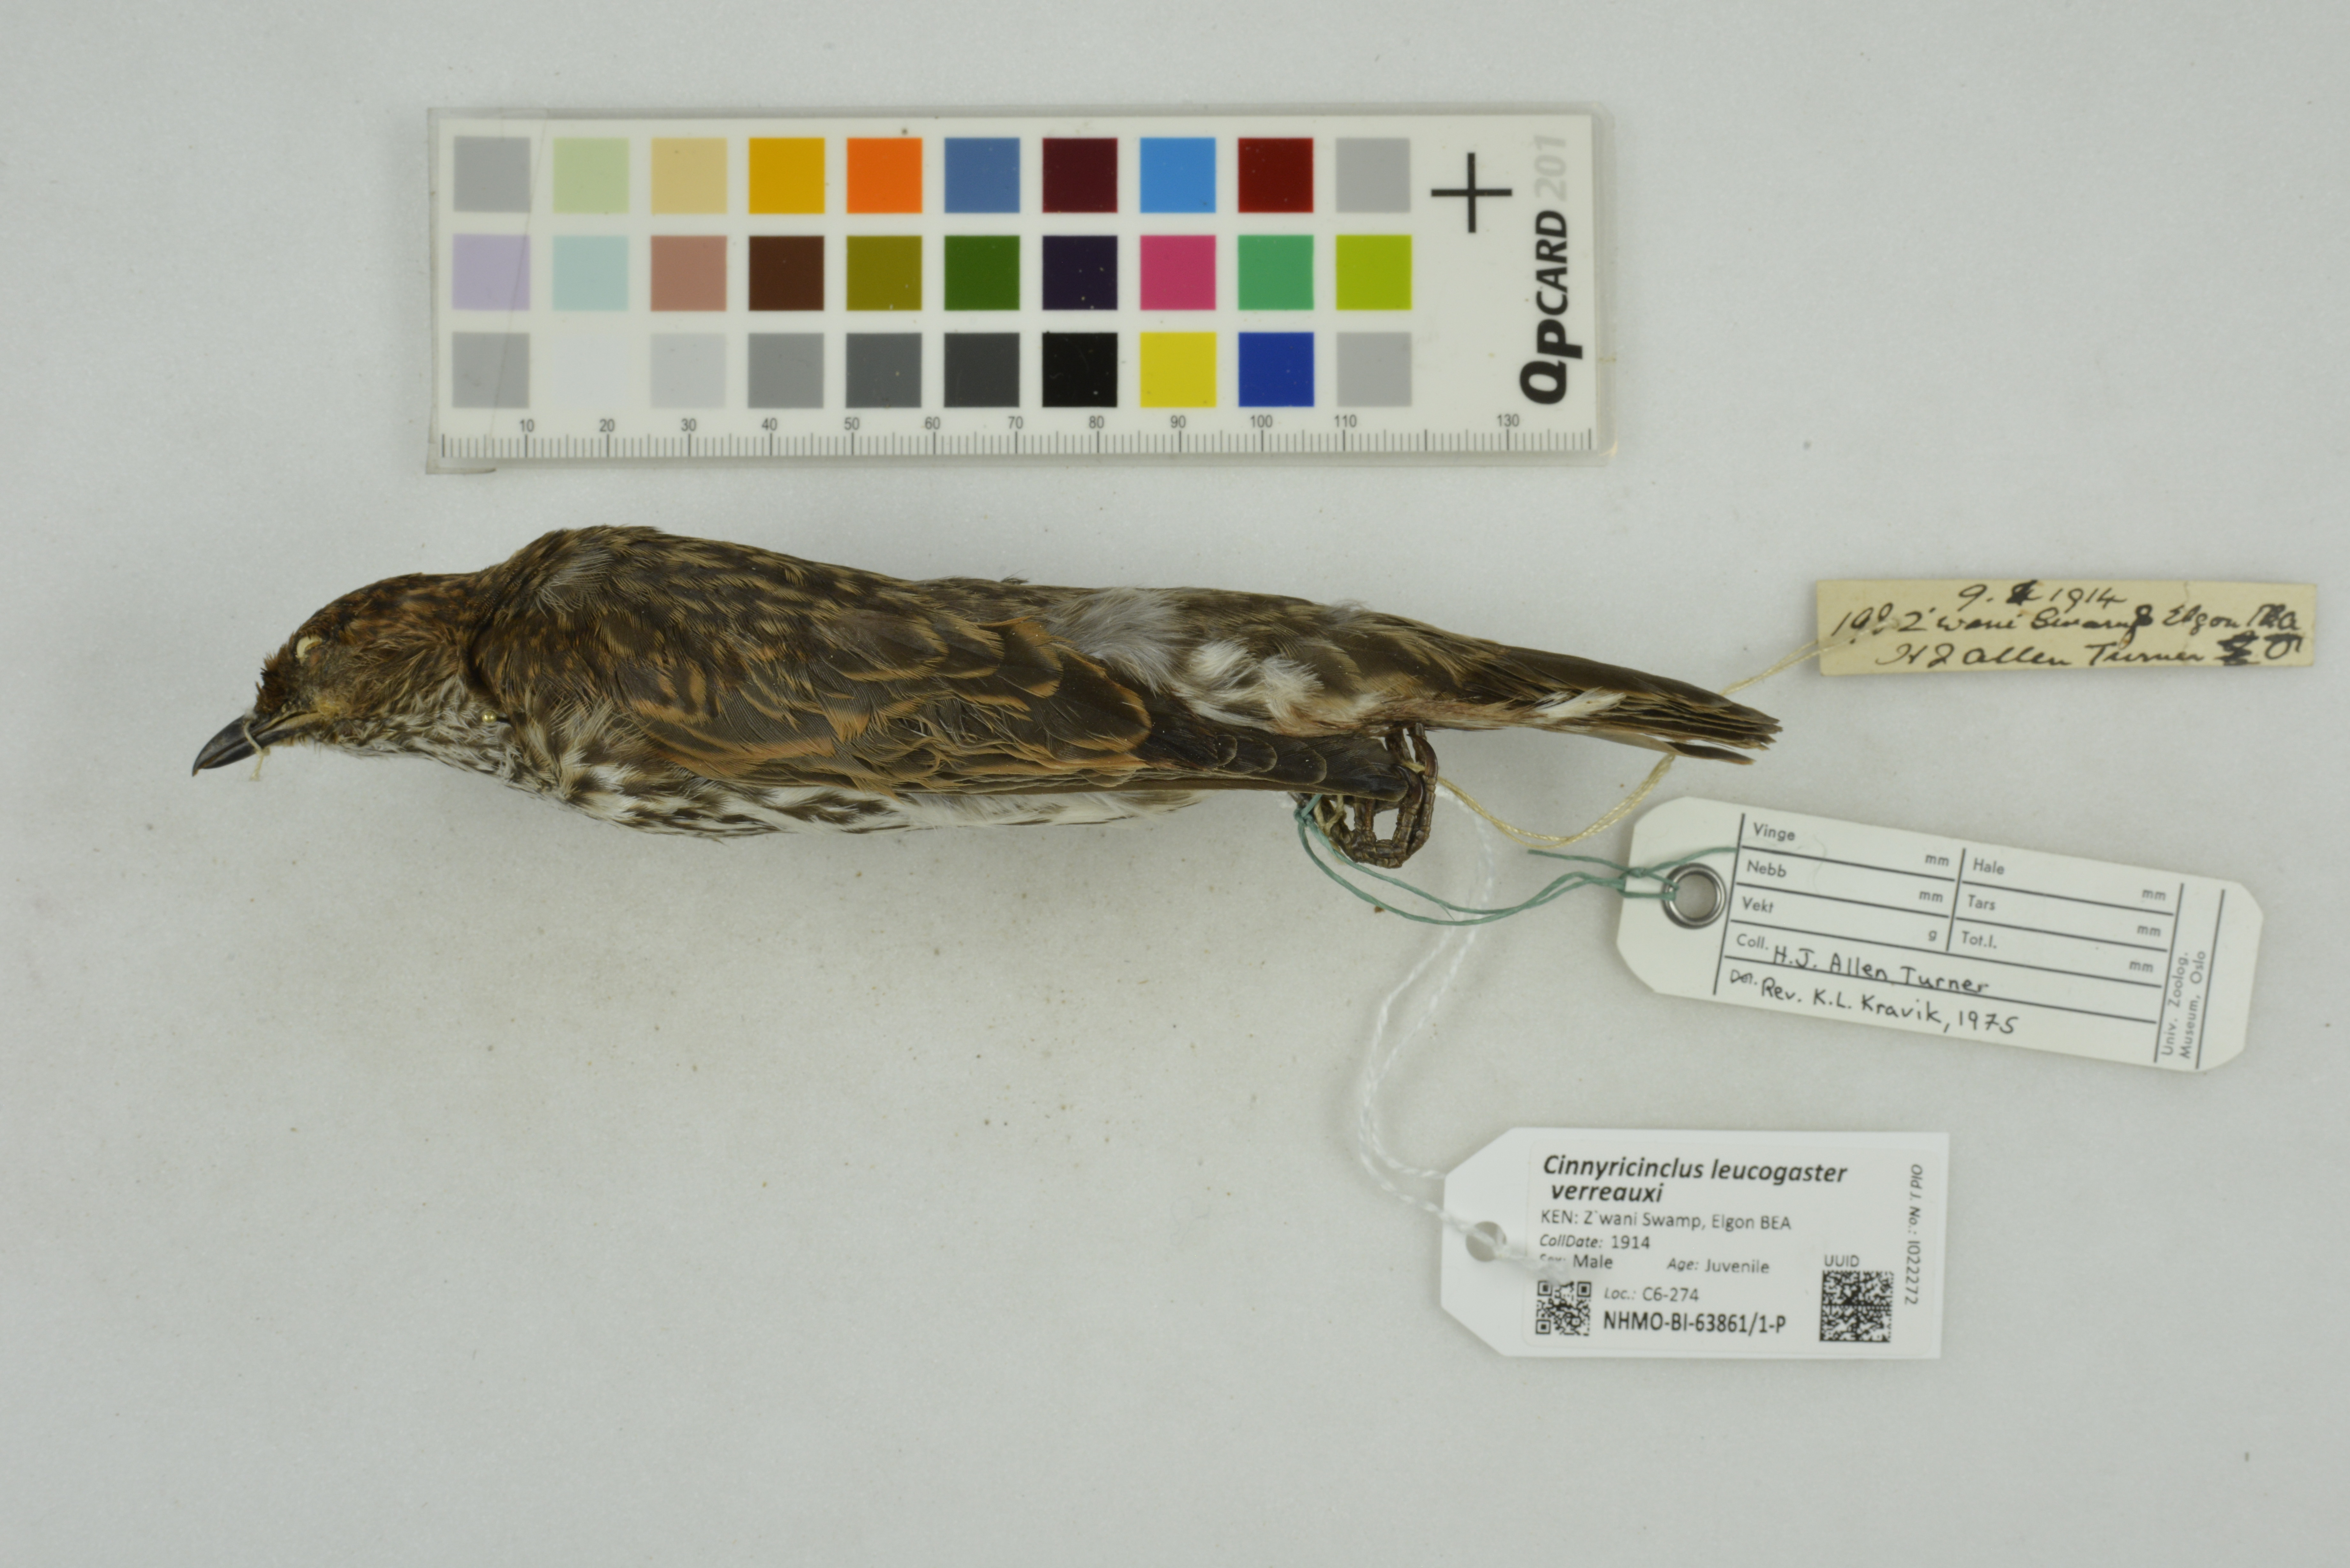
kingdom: Animalia
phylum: Chordata
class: Aves
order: Passeriformes
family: Sturnidae
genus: Cinnyricinclus
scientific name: Cinnyricinclus leucogaster
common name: Violet-backed starling
